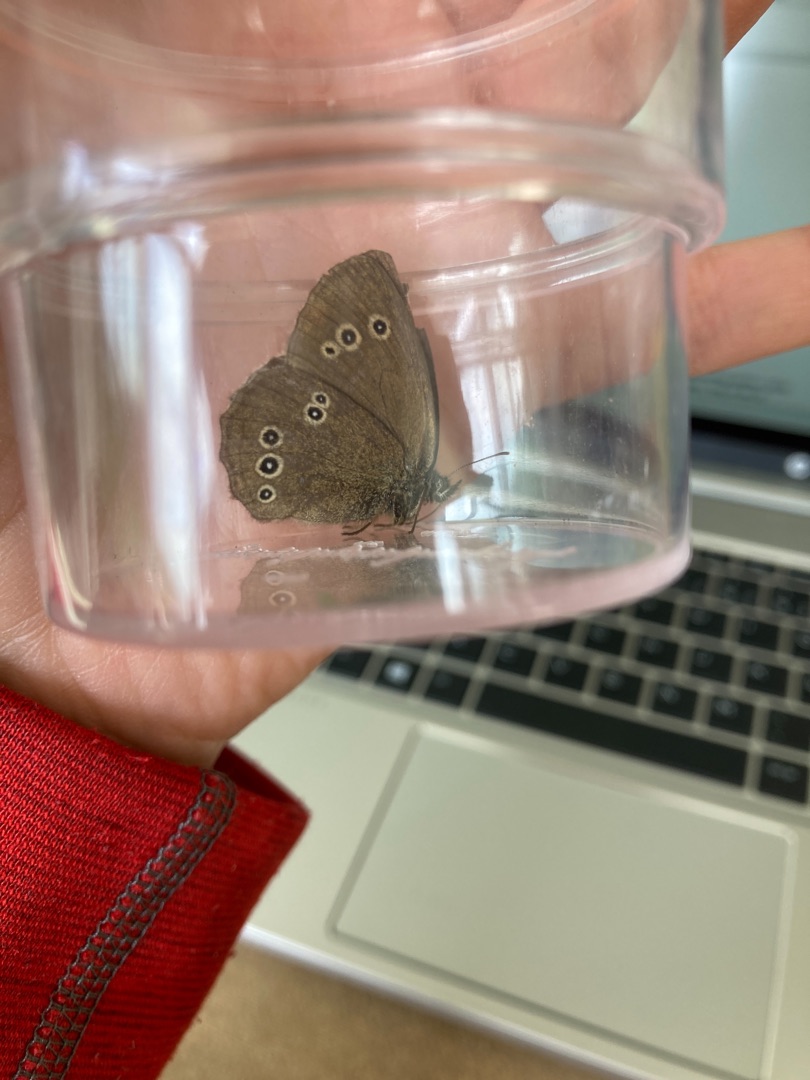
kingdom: Animalia
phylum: Arthropoda
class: Insecta
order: Lepidoptera
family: Nymphalidae
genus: Aphantopus
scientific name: Aphantopus hyperantus
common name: Engrandøje
